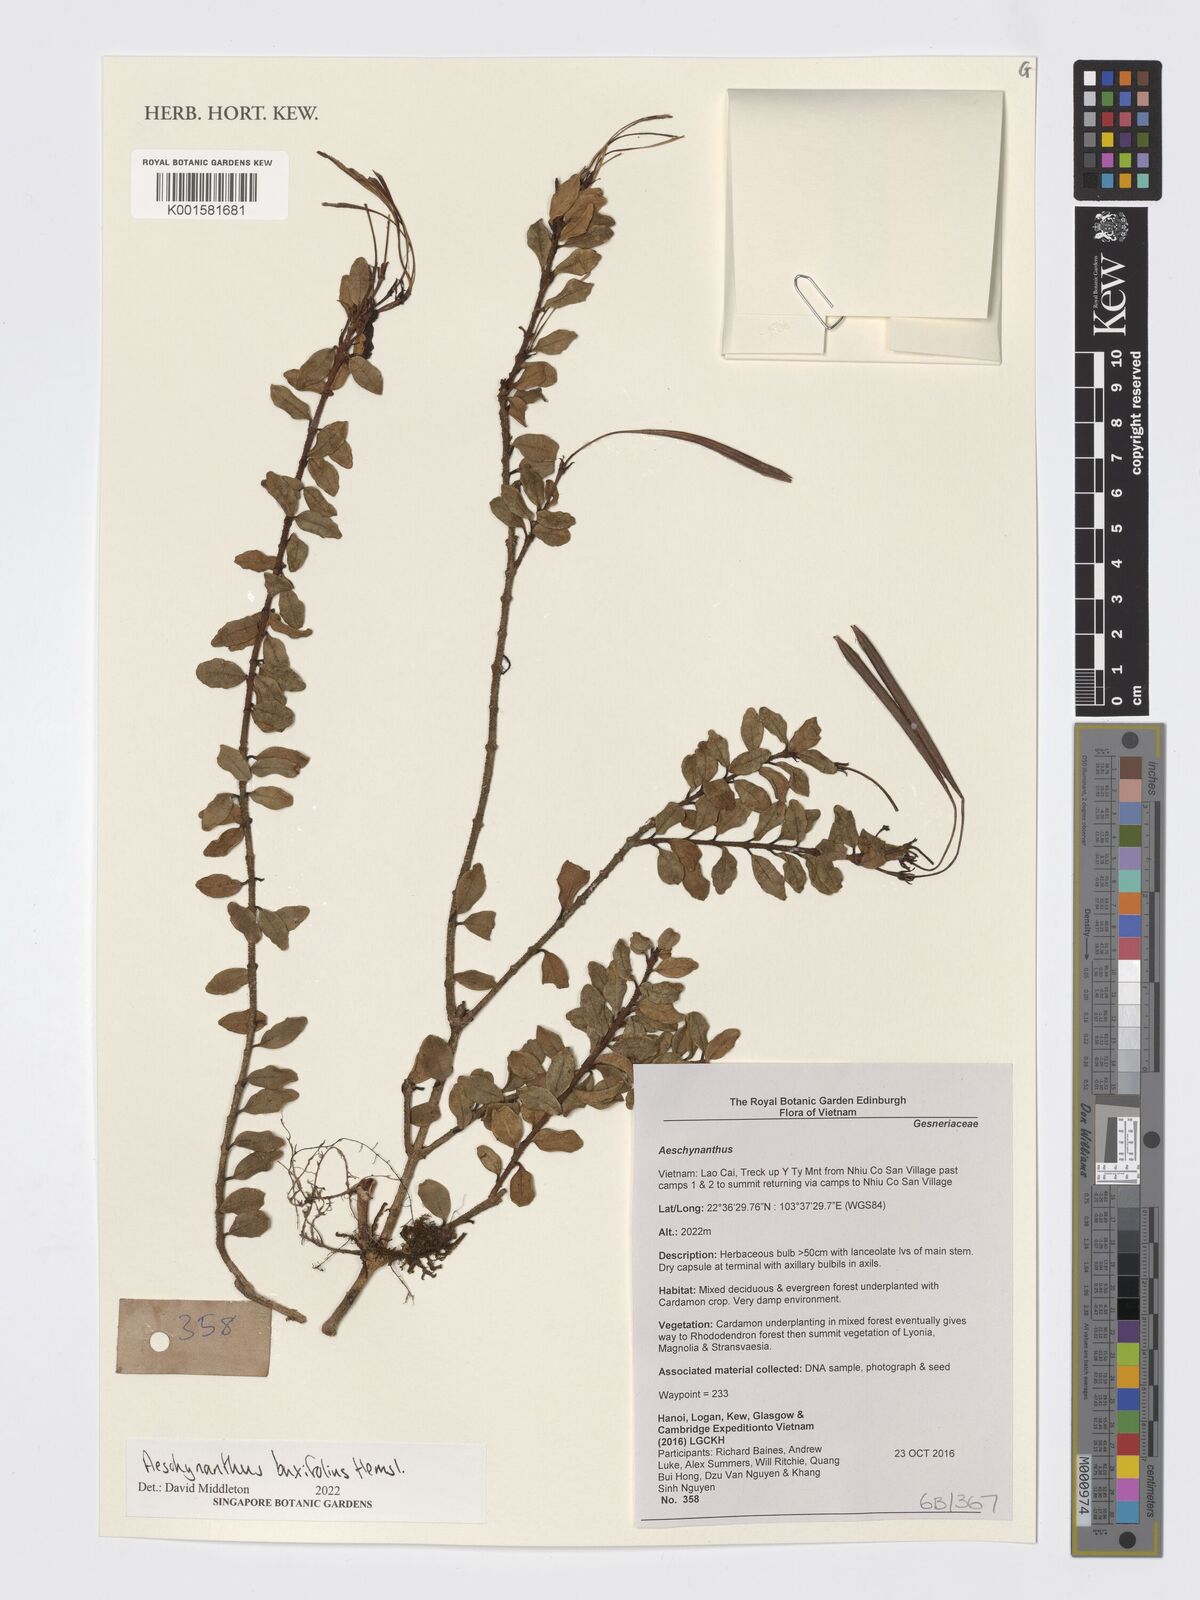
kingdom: Plantae
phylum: Tracheophyta
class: Magnoliopsida
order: Lamiales
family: Gesneriaceae
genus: Aeschynanthus
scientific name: Aeschynanthus buxifolius
